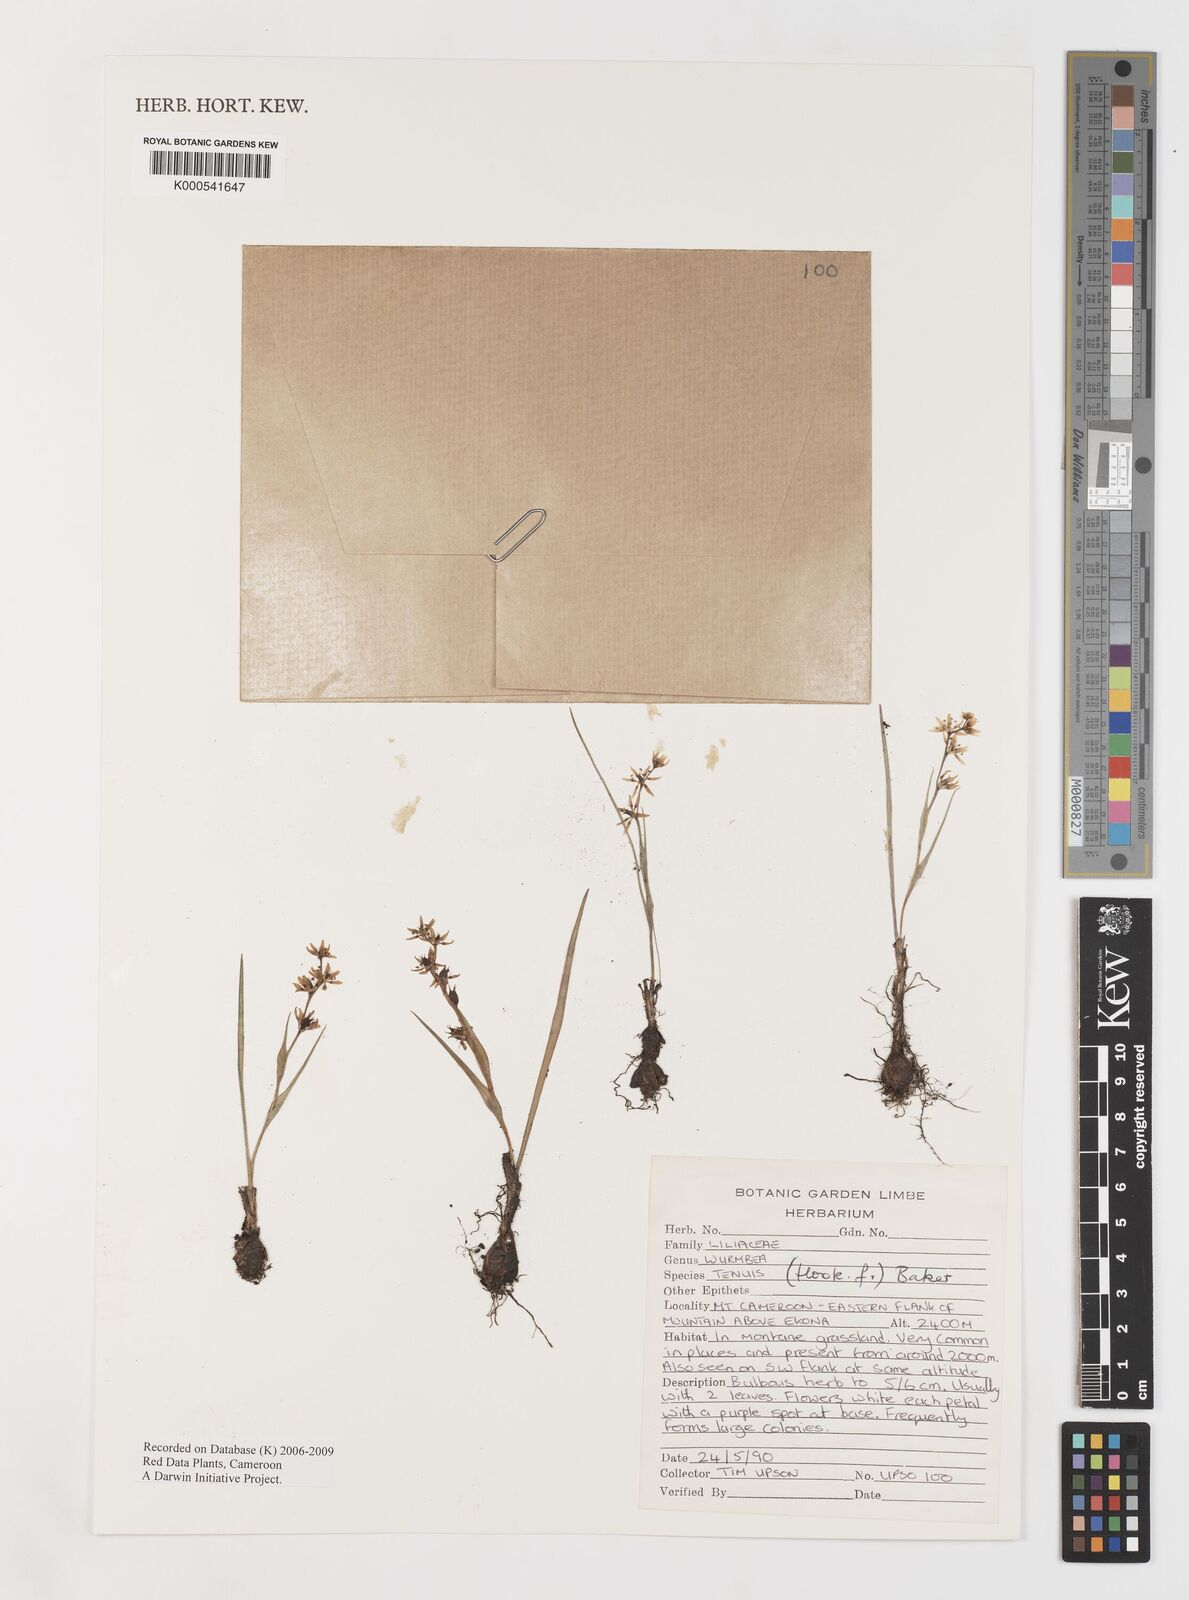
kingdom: Plantae
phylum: Tracheophyta
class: Liliopsida
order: Liliales
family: Colchicaceae
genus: Wurmbea
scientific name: Wurmbea tenuis
